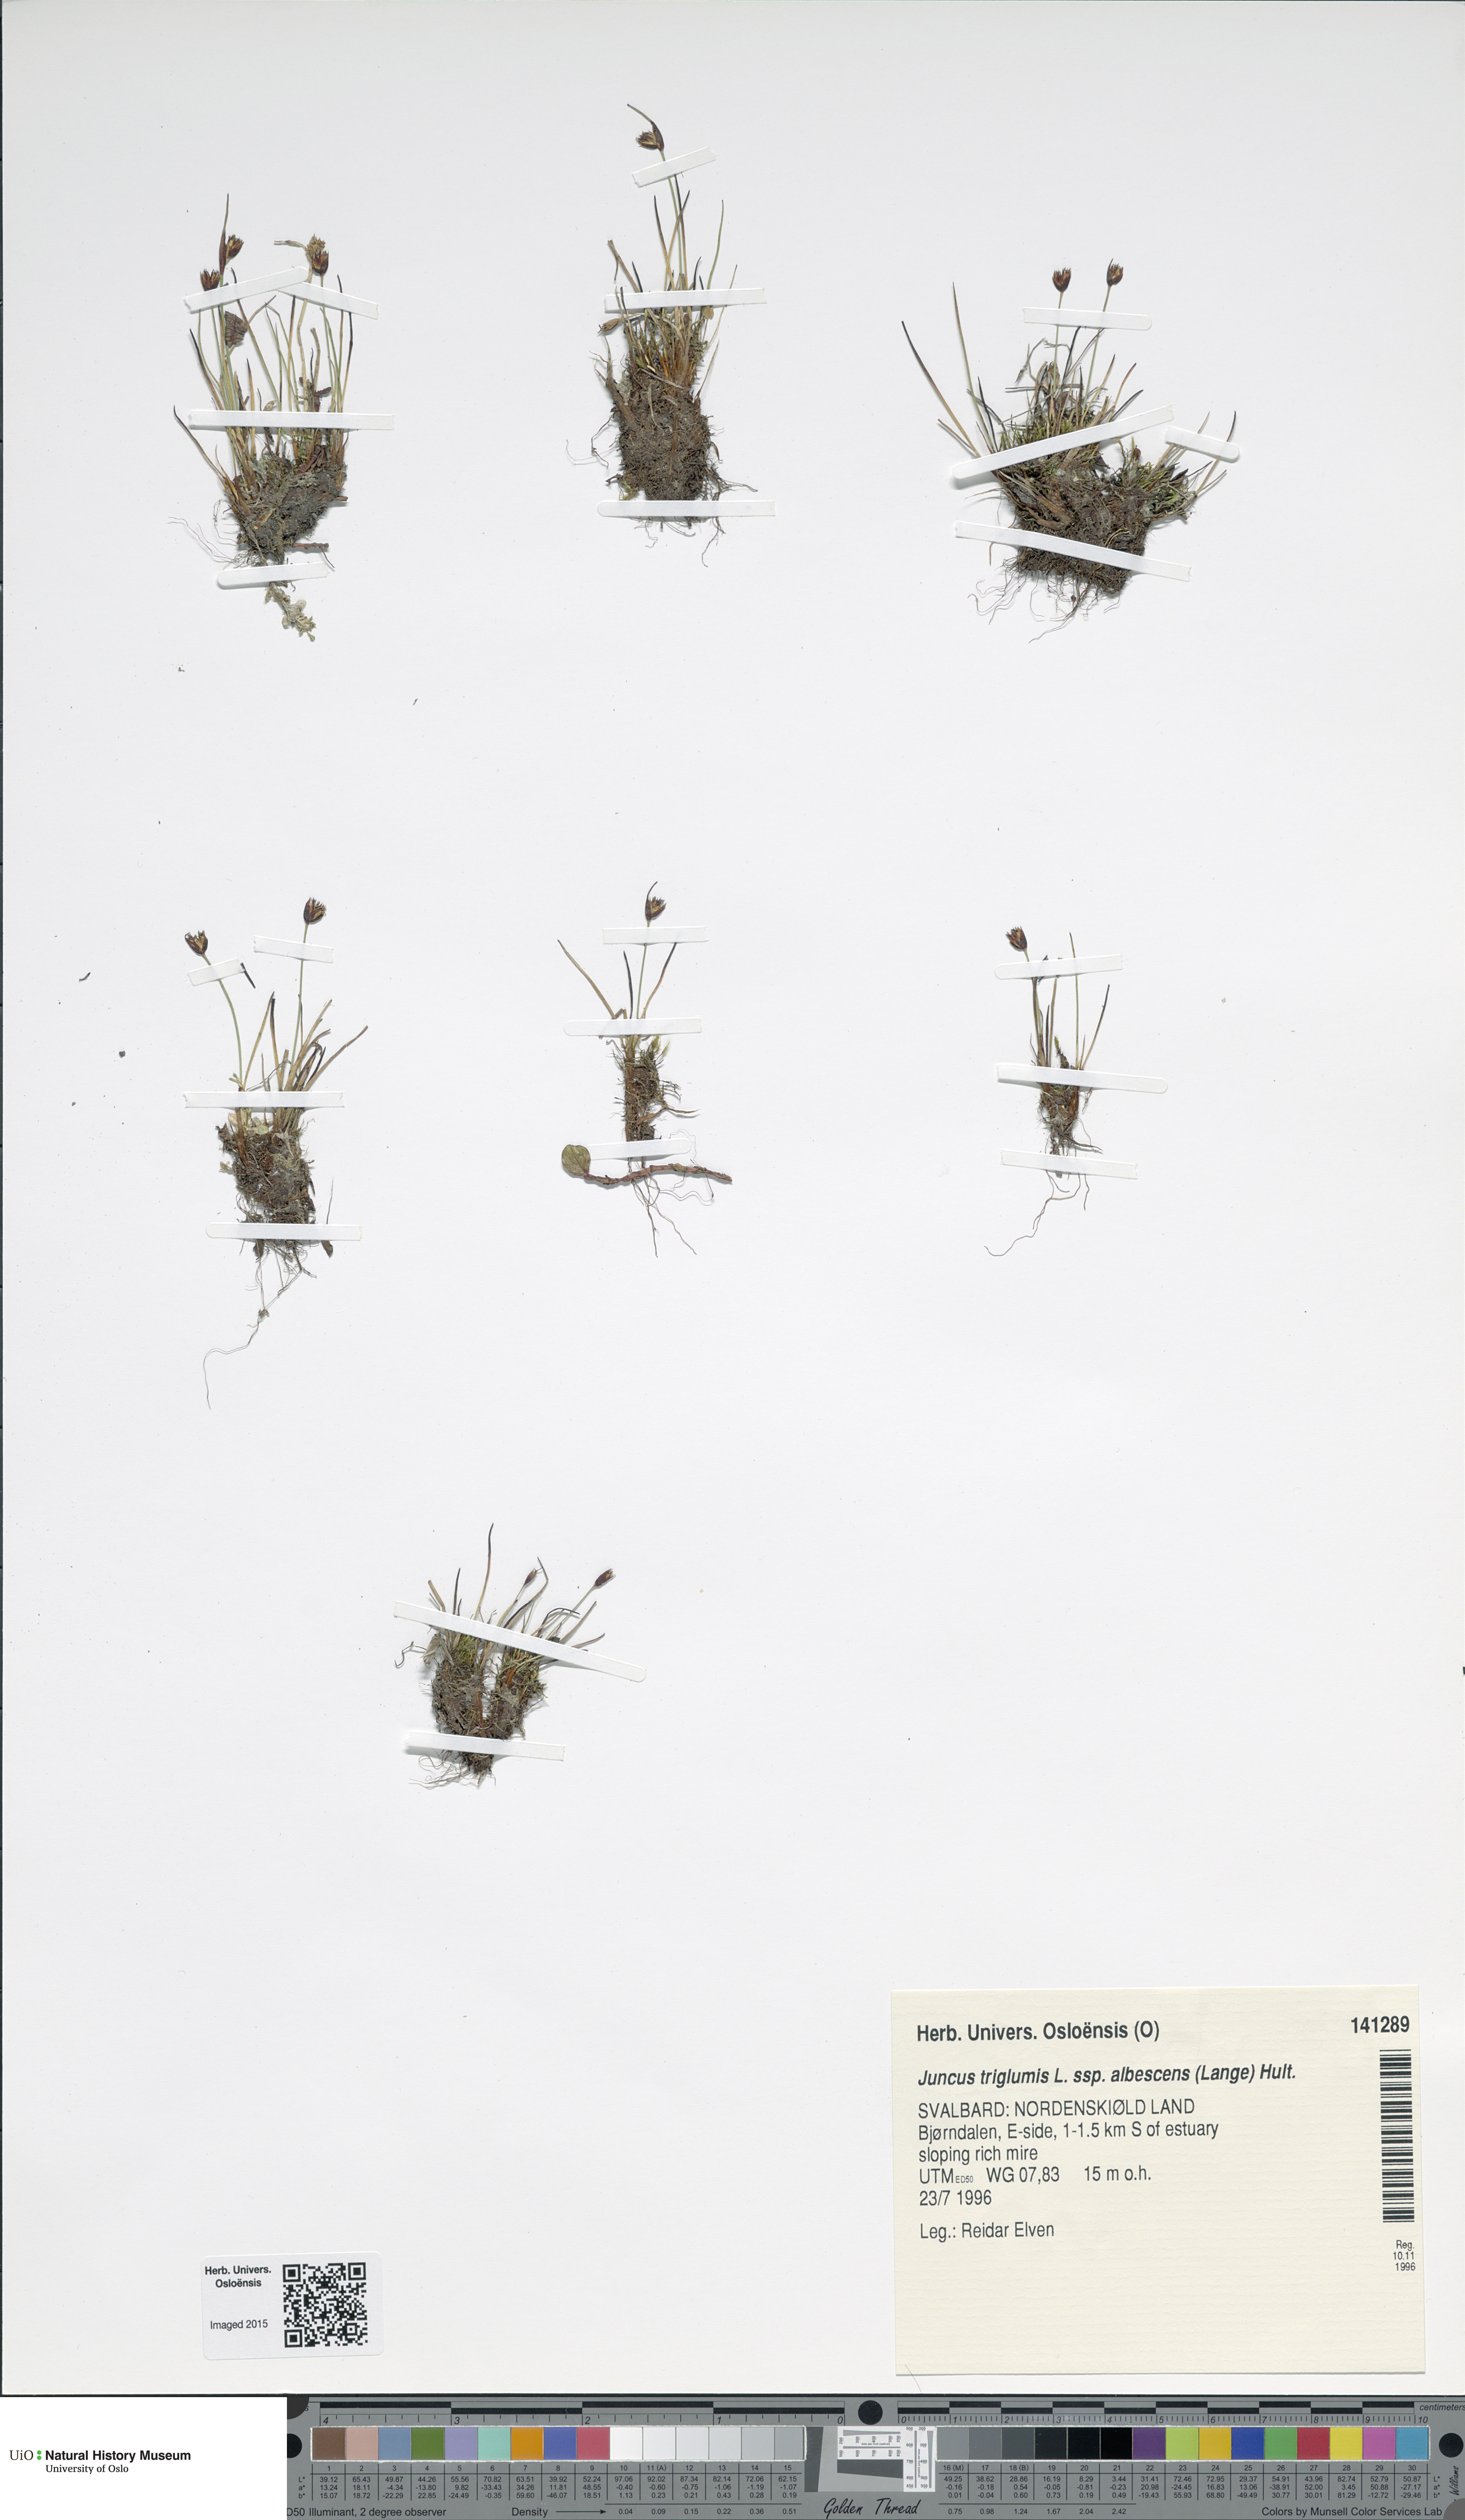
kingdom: Plantae
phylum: Tracheophyta
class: Liliopsida
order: Poales
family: Juncaceae
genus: Juncus
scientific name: Juncus albescens
